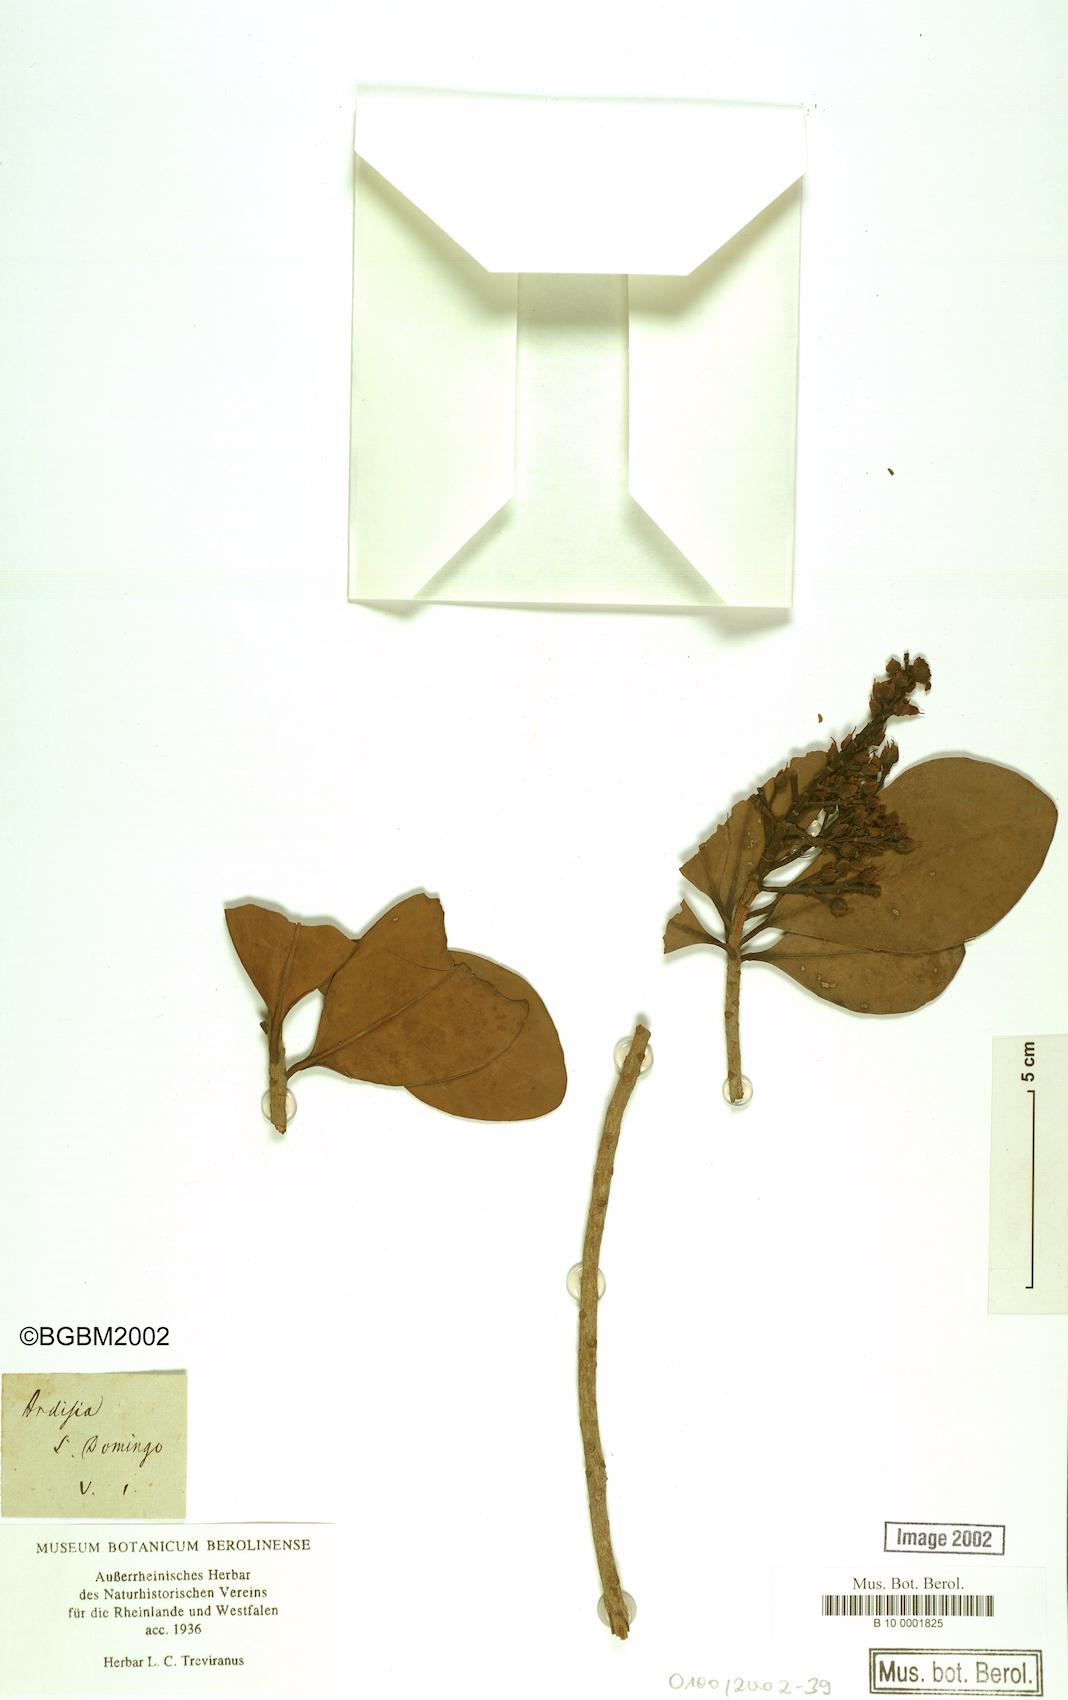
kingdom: Plantae
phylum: Tracheophyta
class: Magnoliopsida
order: Ericales
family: Primulaceae
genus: Ardisia
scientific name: Ardisia
